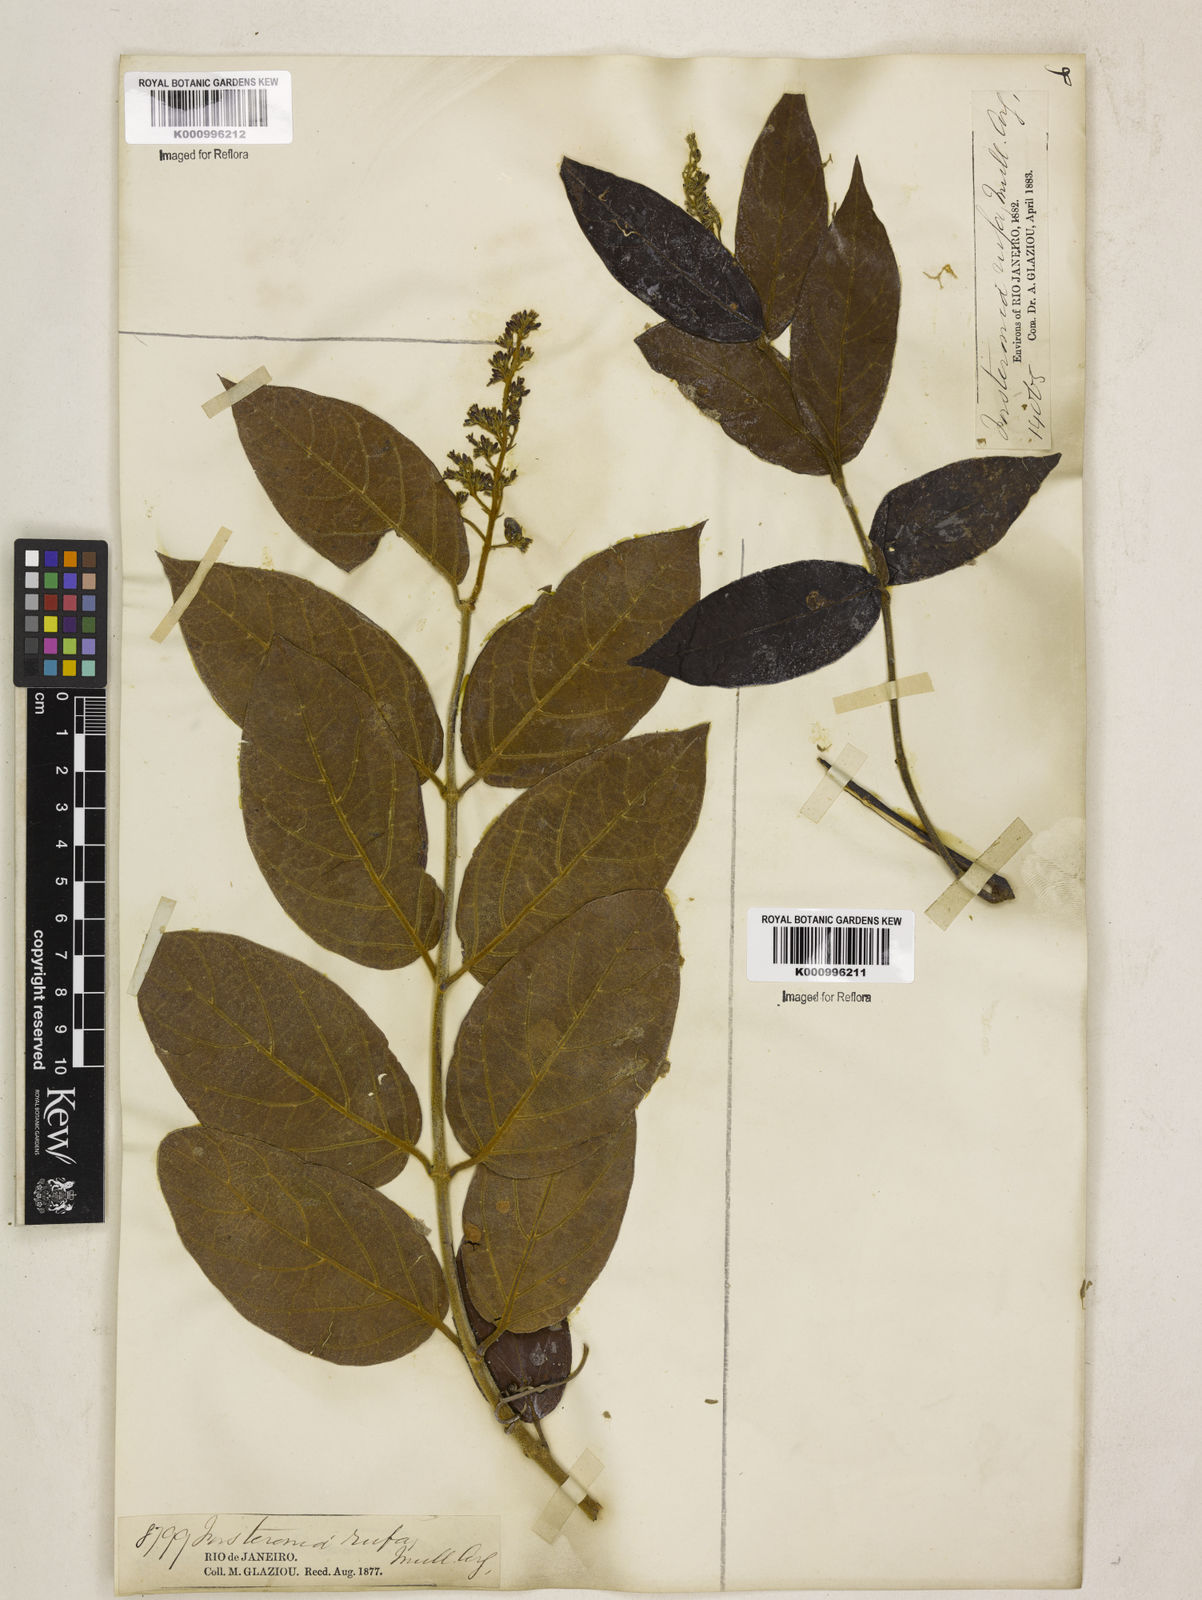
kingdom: Plantae
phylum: Tracheophyta
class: Magnoliopsida
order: Gentianales
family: Apocynaceae
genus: Forsteronia
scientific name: Forsteronia
